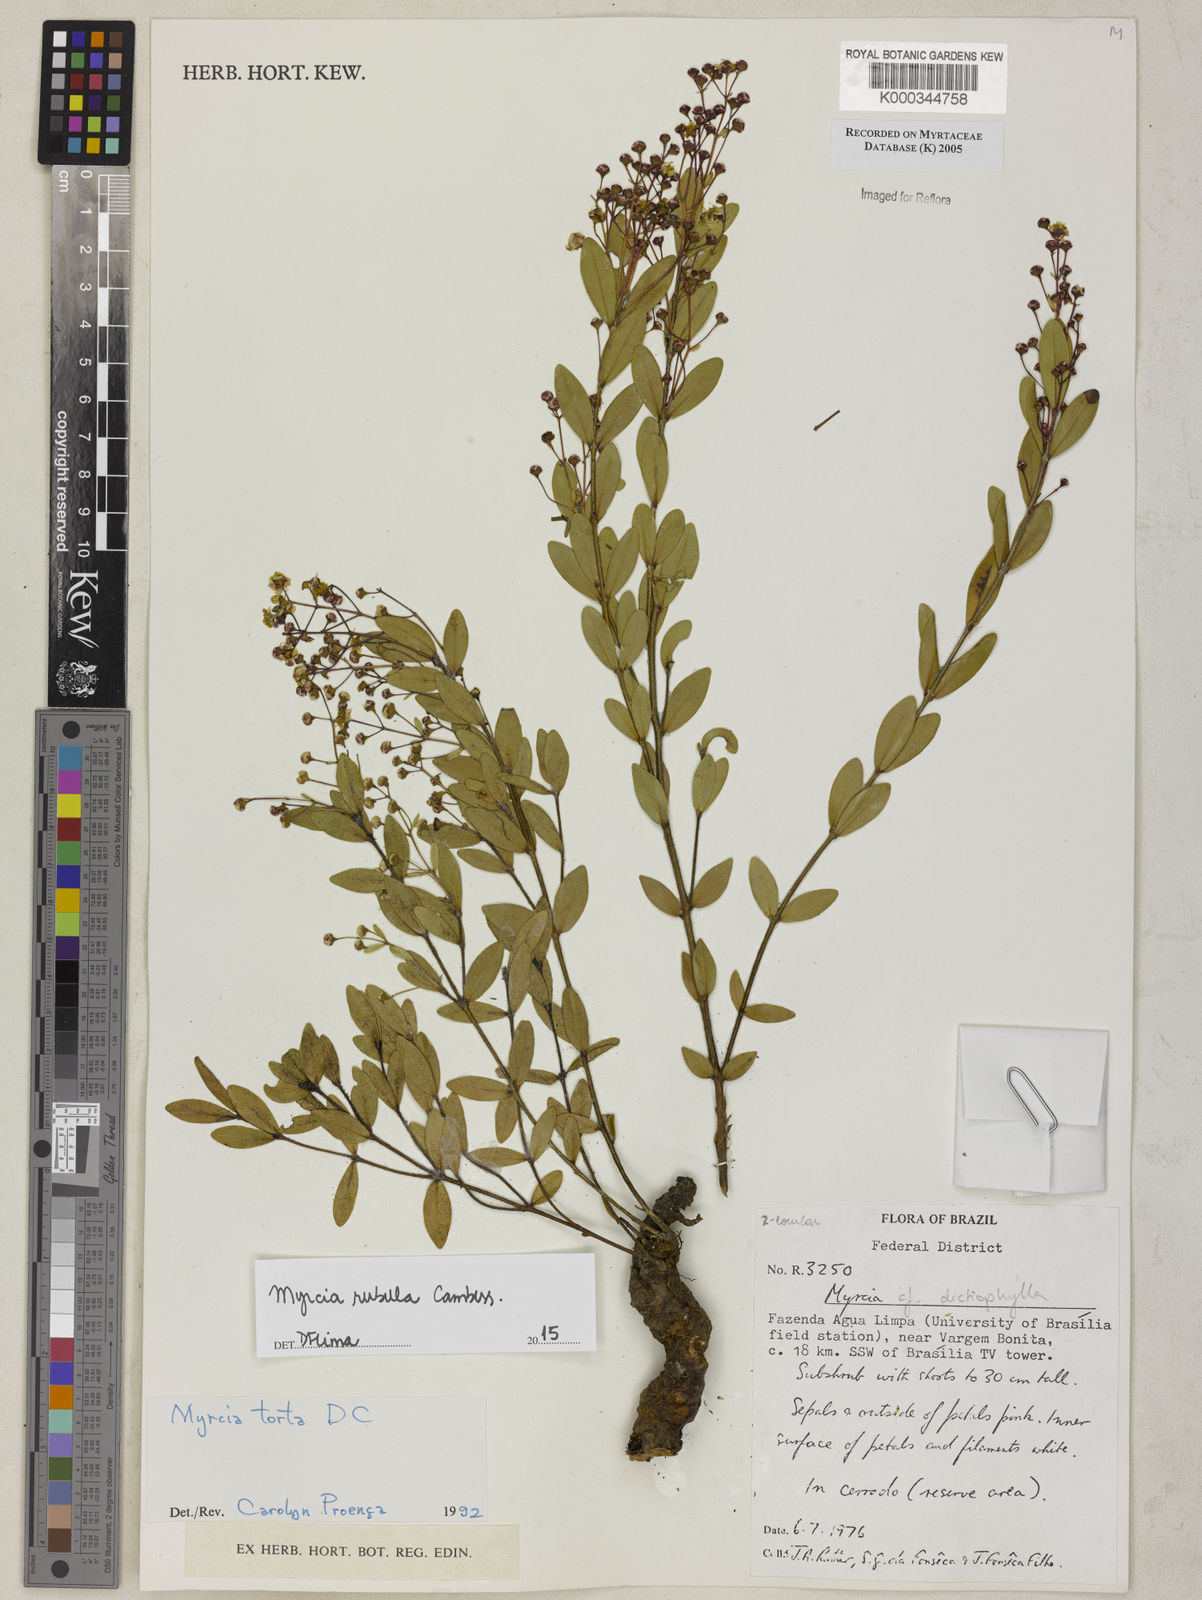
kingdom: Plantae
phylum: Tracheophyta
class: Magnoliopsida
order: Myrtales
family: Myrtaceae
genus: Myrcia
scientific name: Myrcia guianensis
